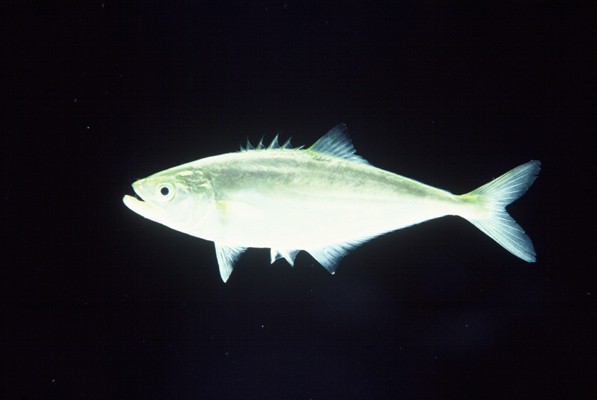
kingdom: Animalia
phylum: Chordata
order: Perciformes
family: Carangidae
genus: Scomberoides
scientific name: Scomberoides
